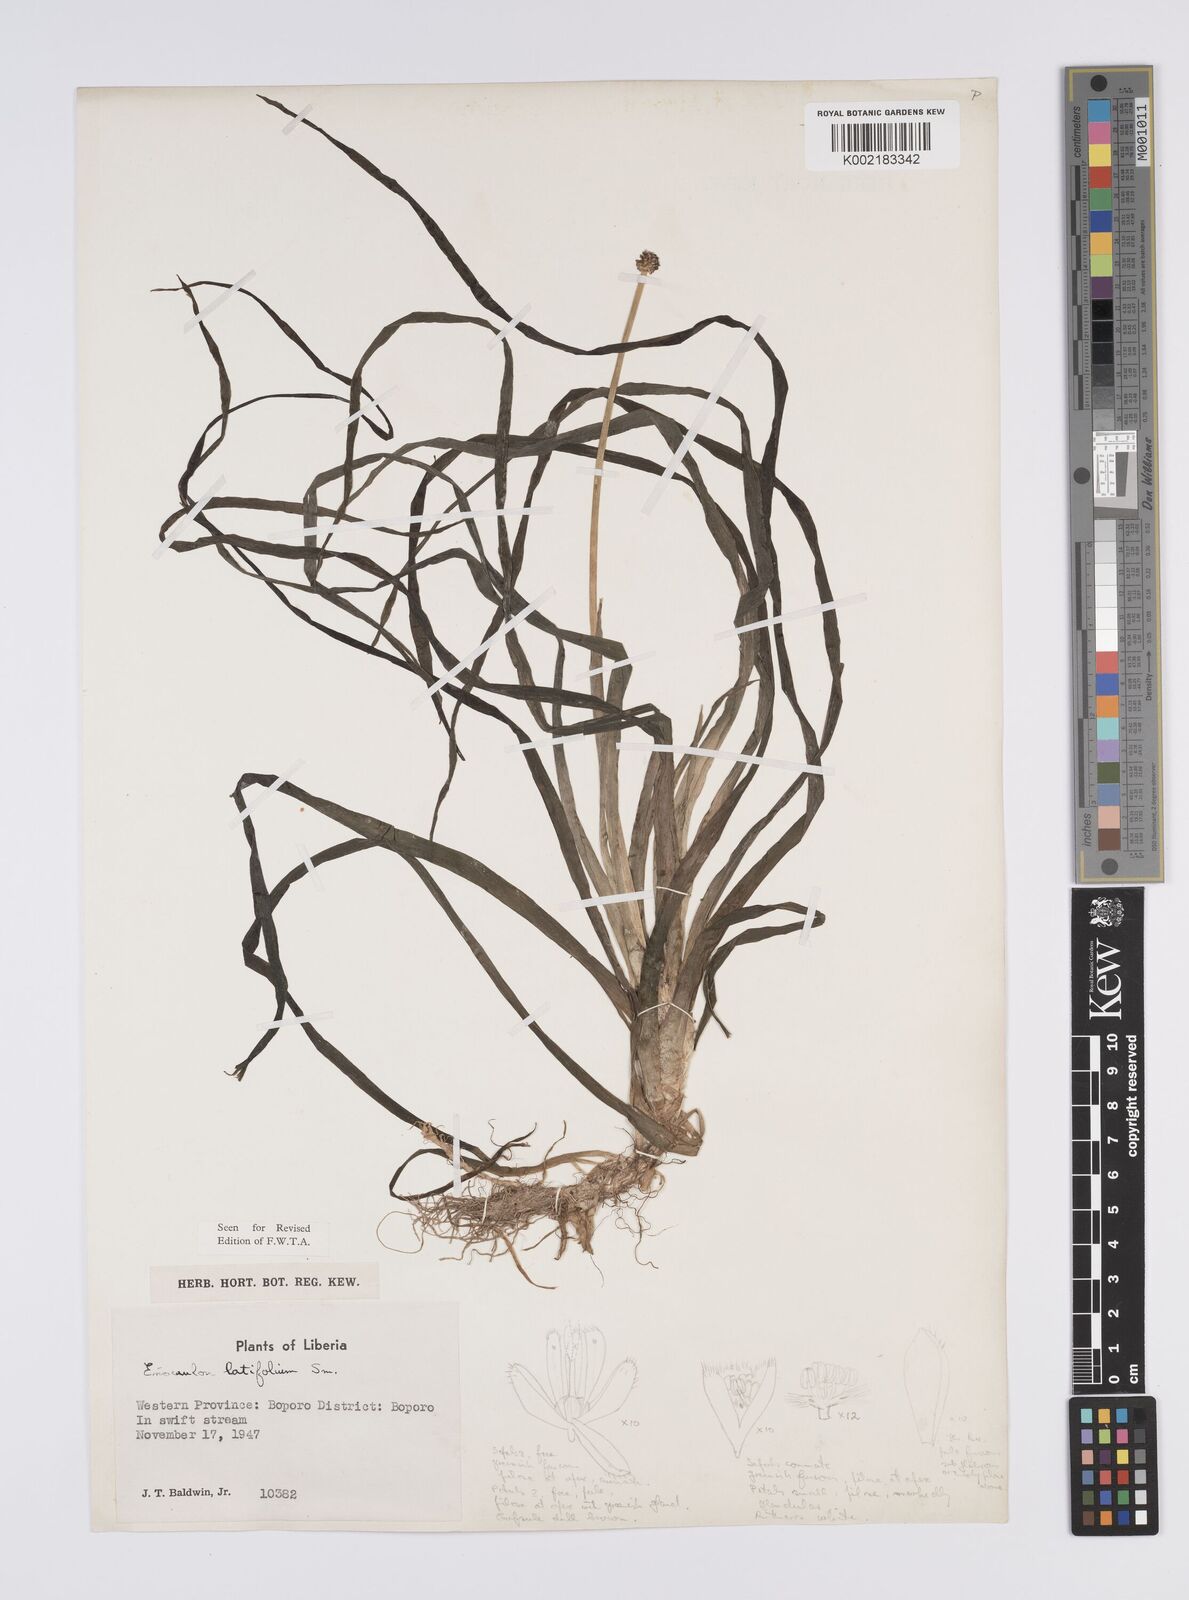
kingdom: Plantae
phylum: Tracheophyta
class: Liliopsida
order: Poales
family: Eriocaulaceae
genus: Eriocaulon
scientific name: Eriocaulon latifolium
